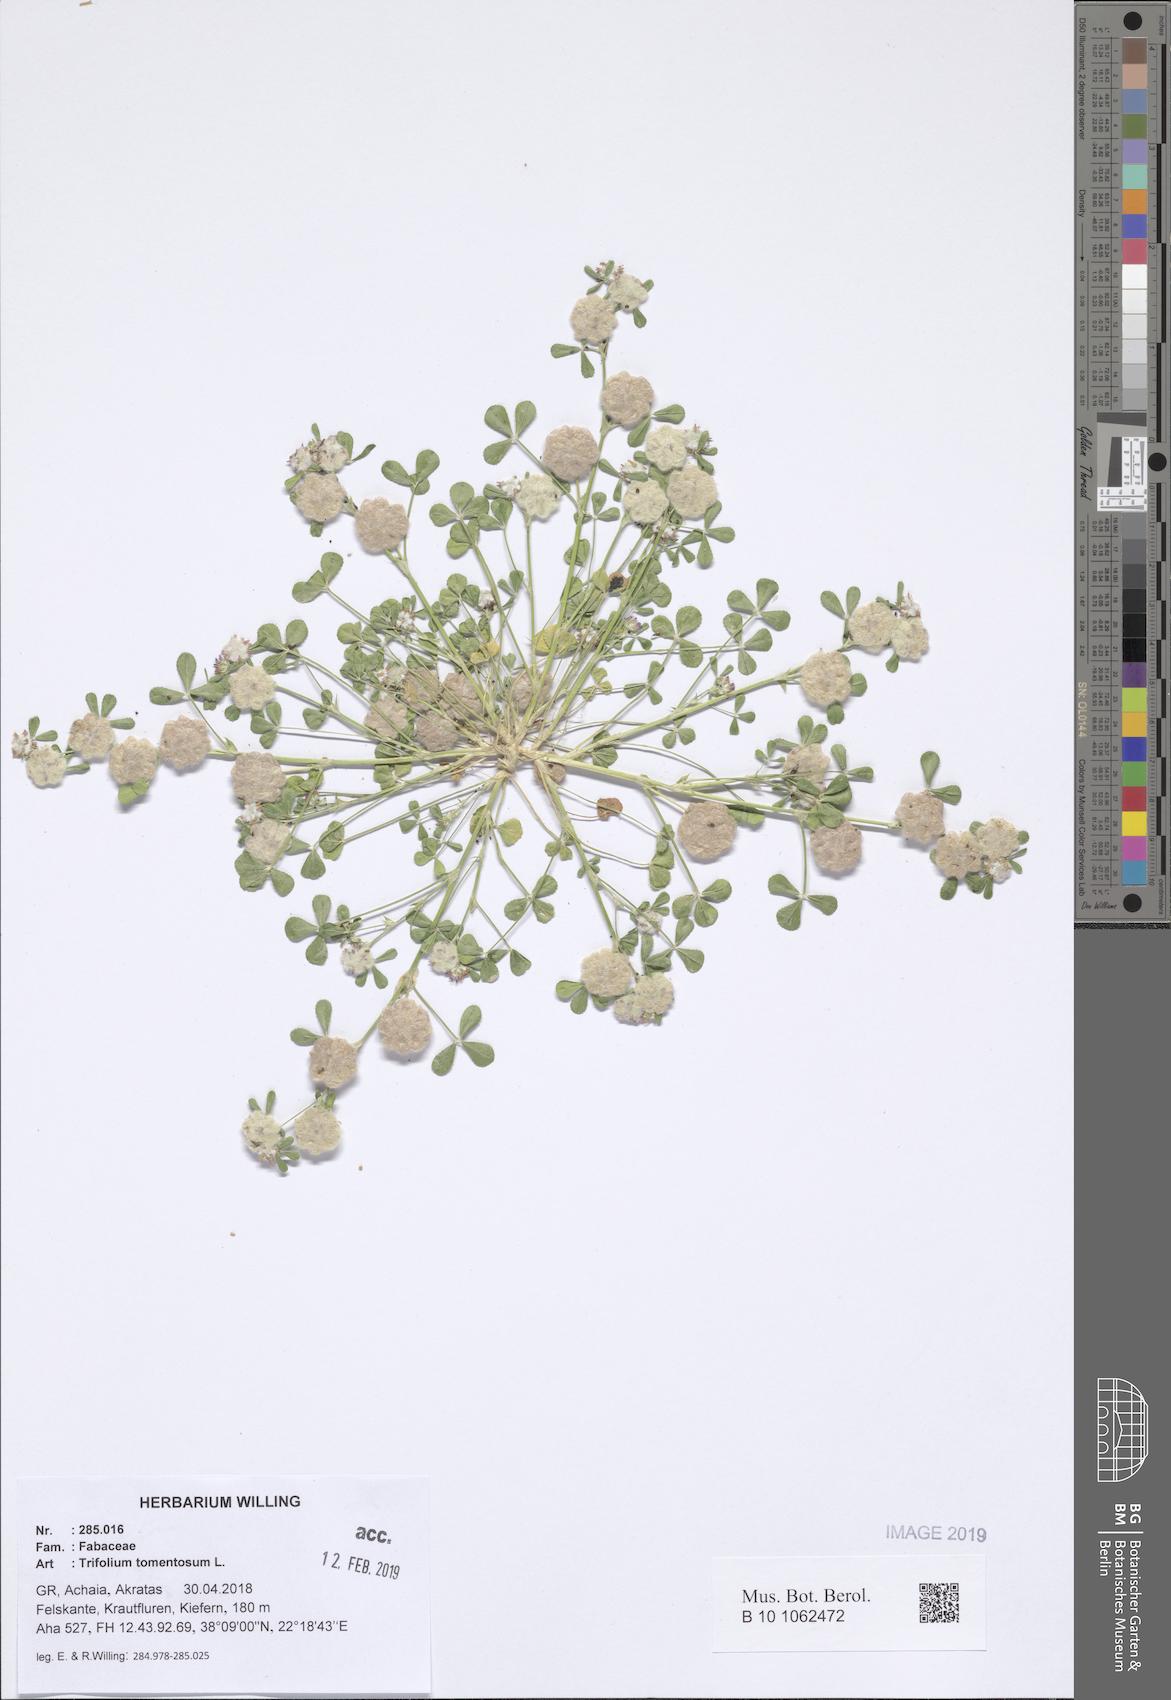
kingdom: Plantae
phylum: Tracheophyta
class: Magnoliopsida
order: Fabales
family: Fabaceae
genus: Trifolium
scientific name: Trifolium tomentosum
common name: Woolly clover
